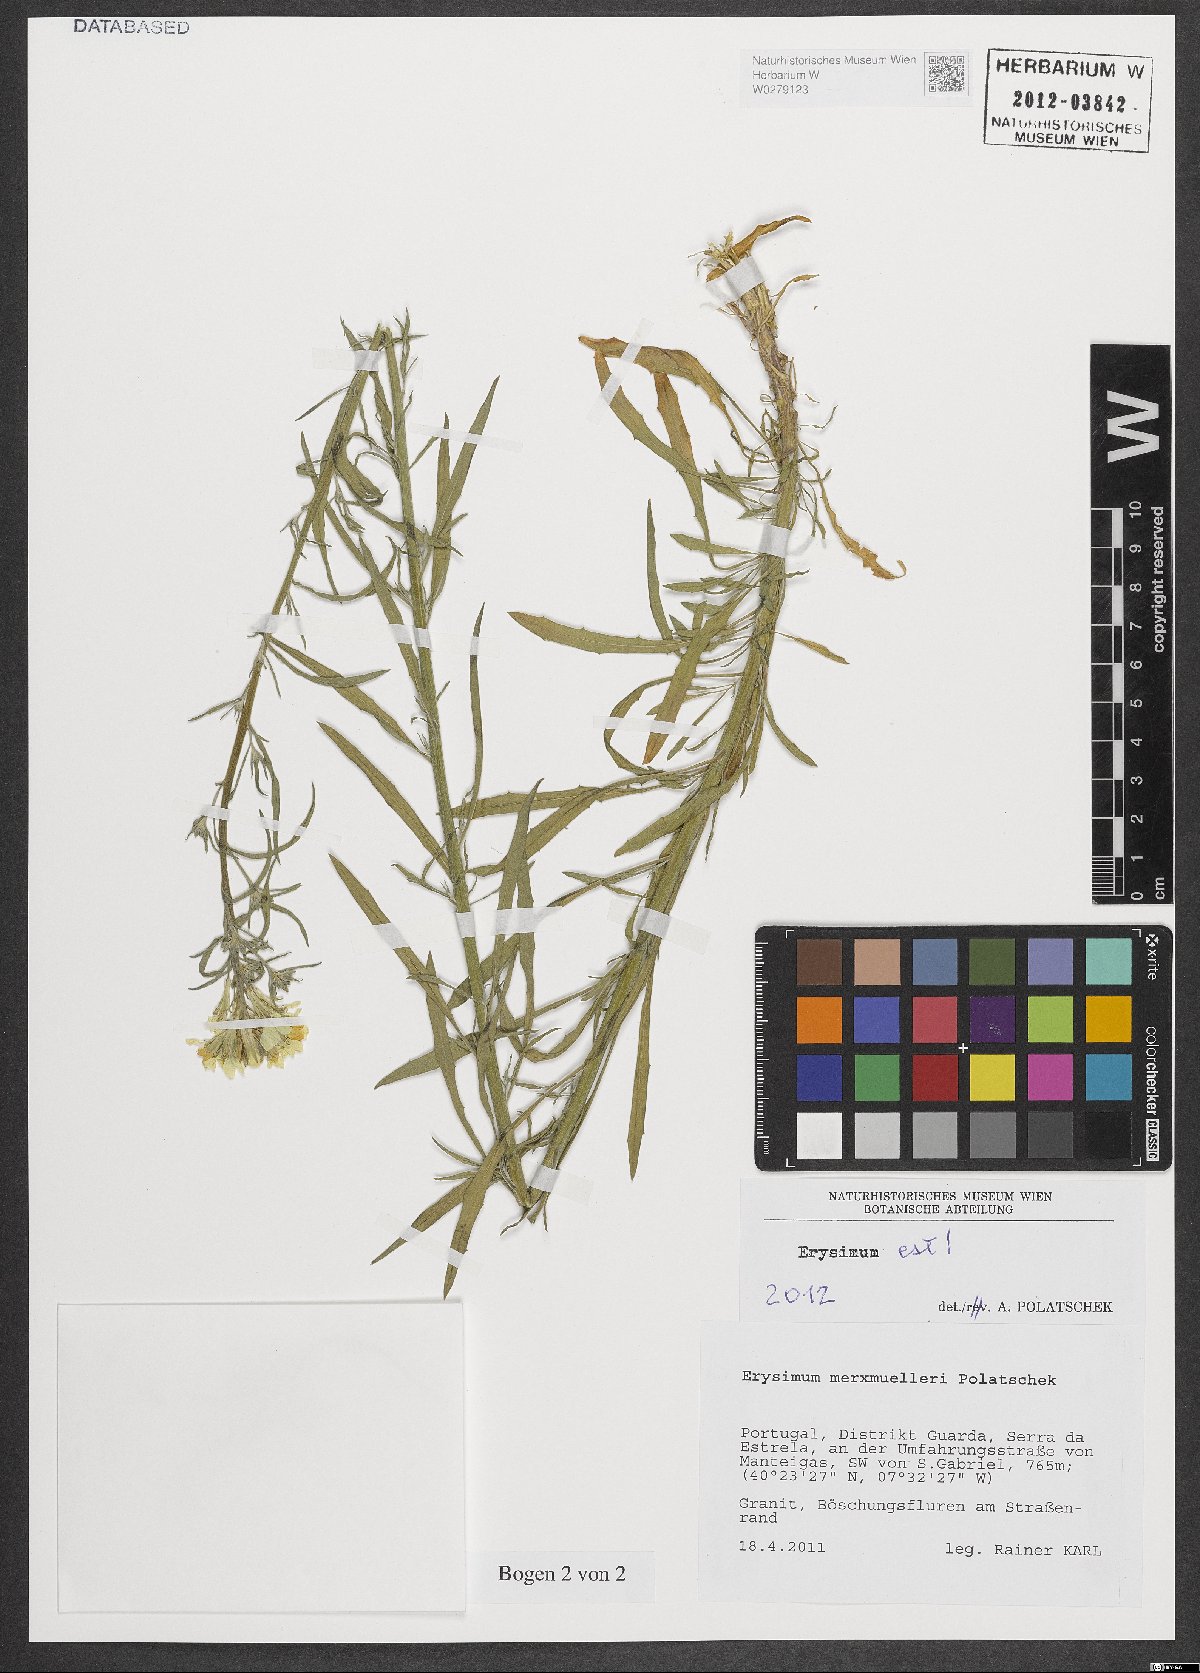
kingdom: Plantae
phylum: Tracheophyta
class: Magnoliopsida
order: Brassicales
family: Brassicaceae
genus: Erysimum
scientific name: Erysimum nevadense
